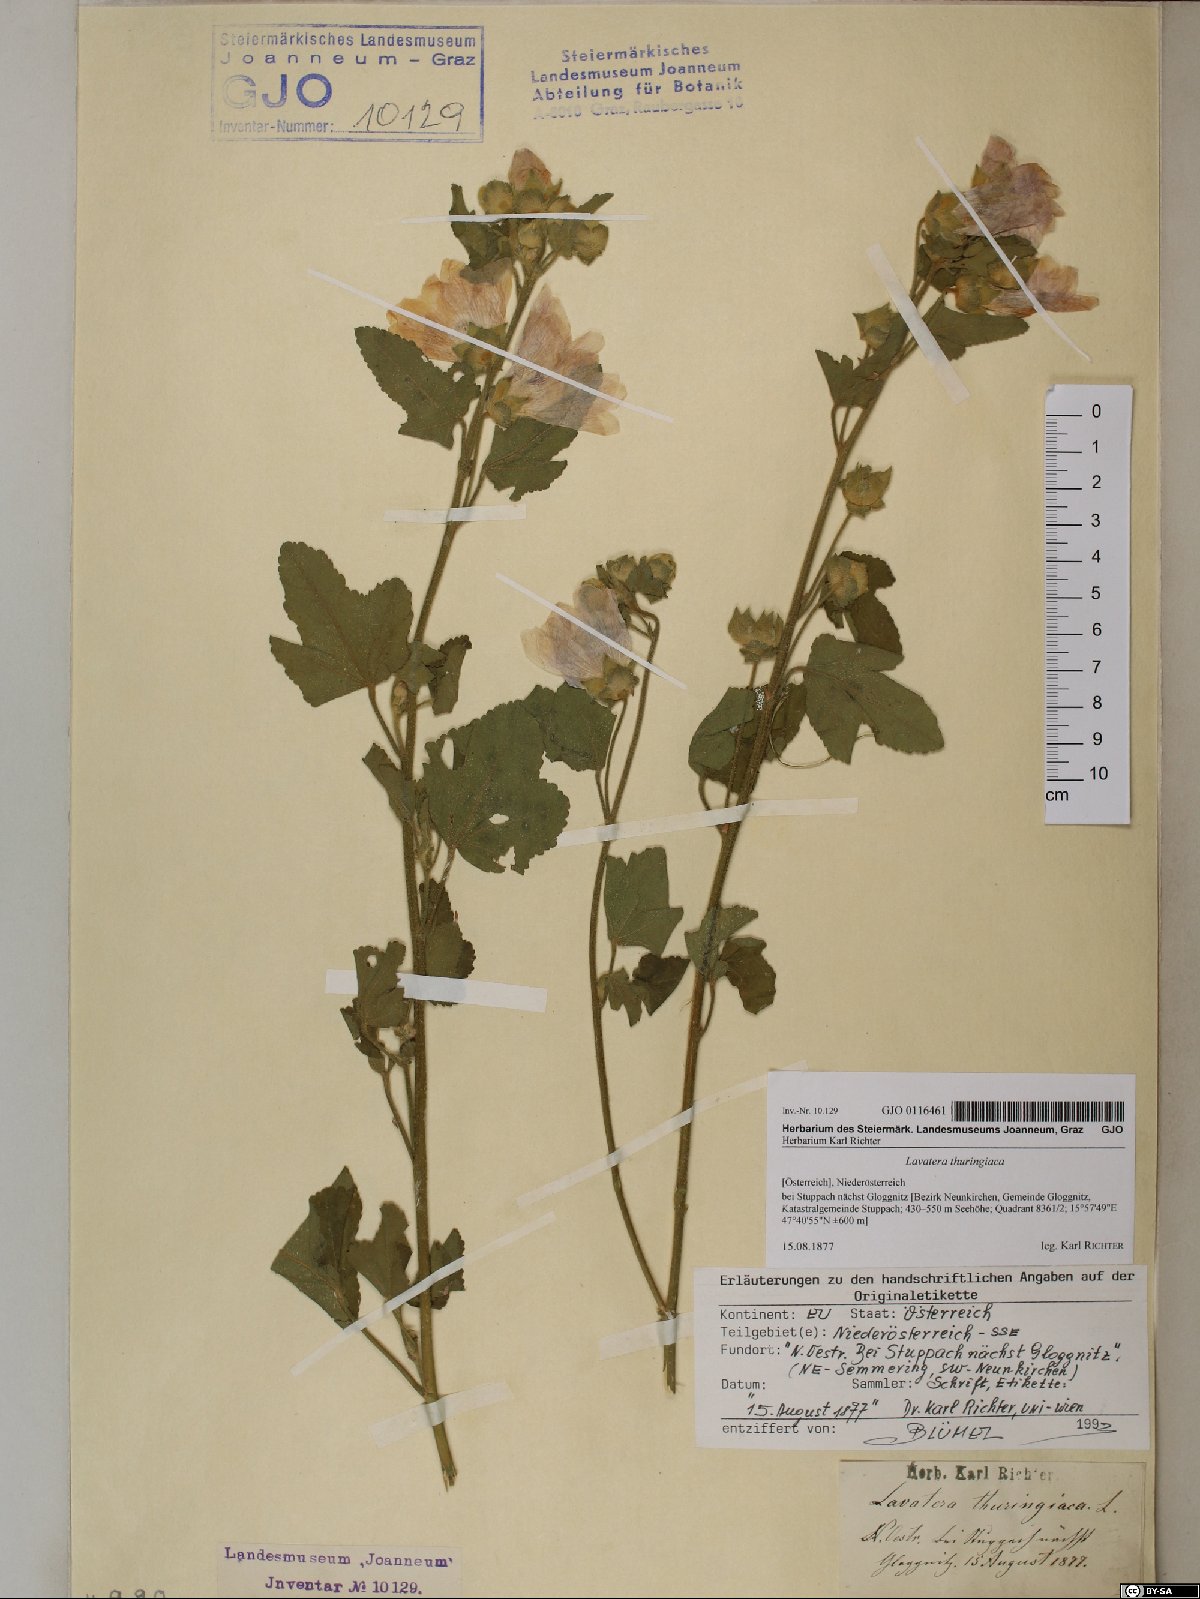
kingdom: Plantae
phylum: Tracheophyta
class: Magnoliopsida
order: Malvales
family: Malvaceae
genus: Malva
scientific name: Malva thuringiaca
